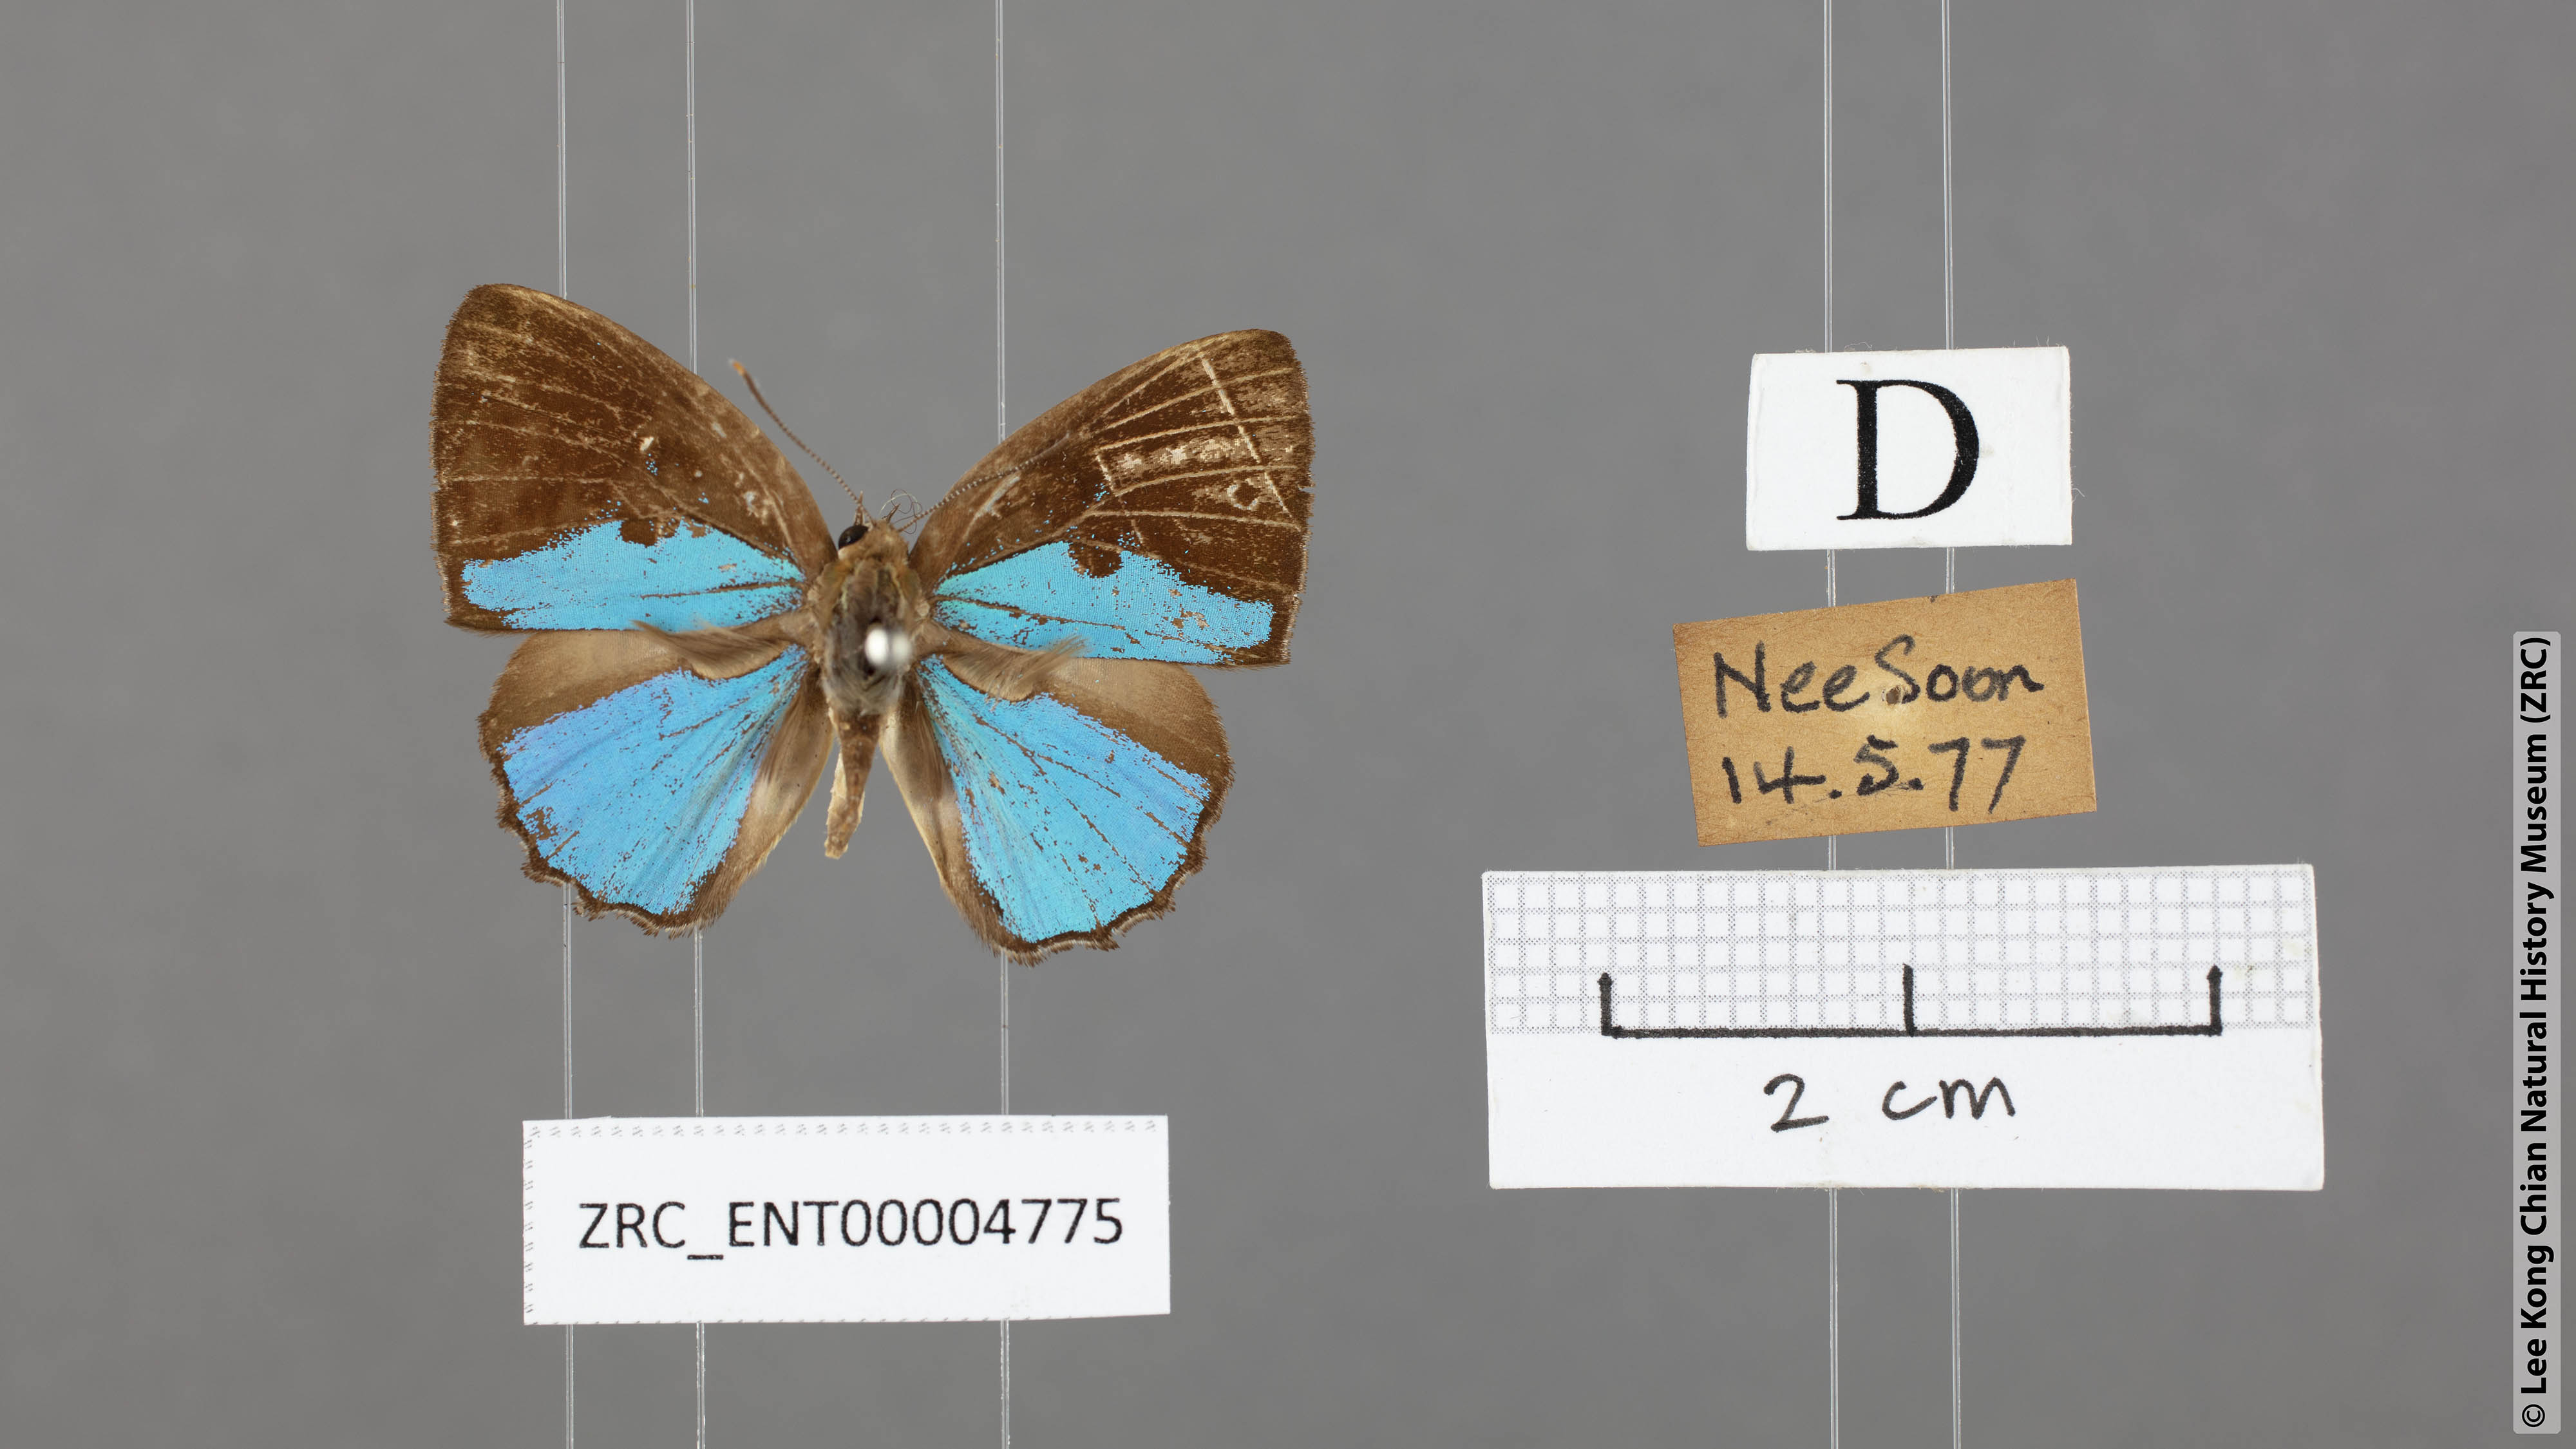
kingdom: Animalia
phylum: Arthropoda
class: Insecta
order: Lepidoptera
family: Lycaenidae
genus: Poritia
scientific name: Poritia sumatrae
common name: Sumatran gem
